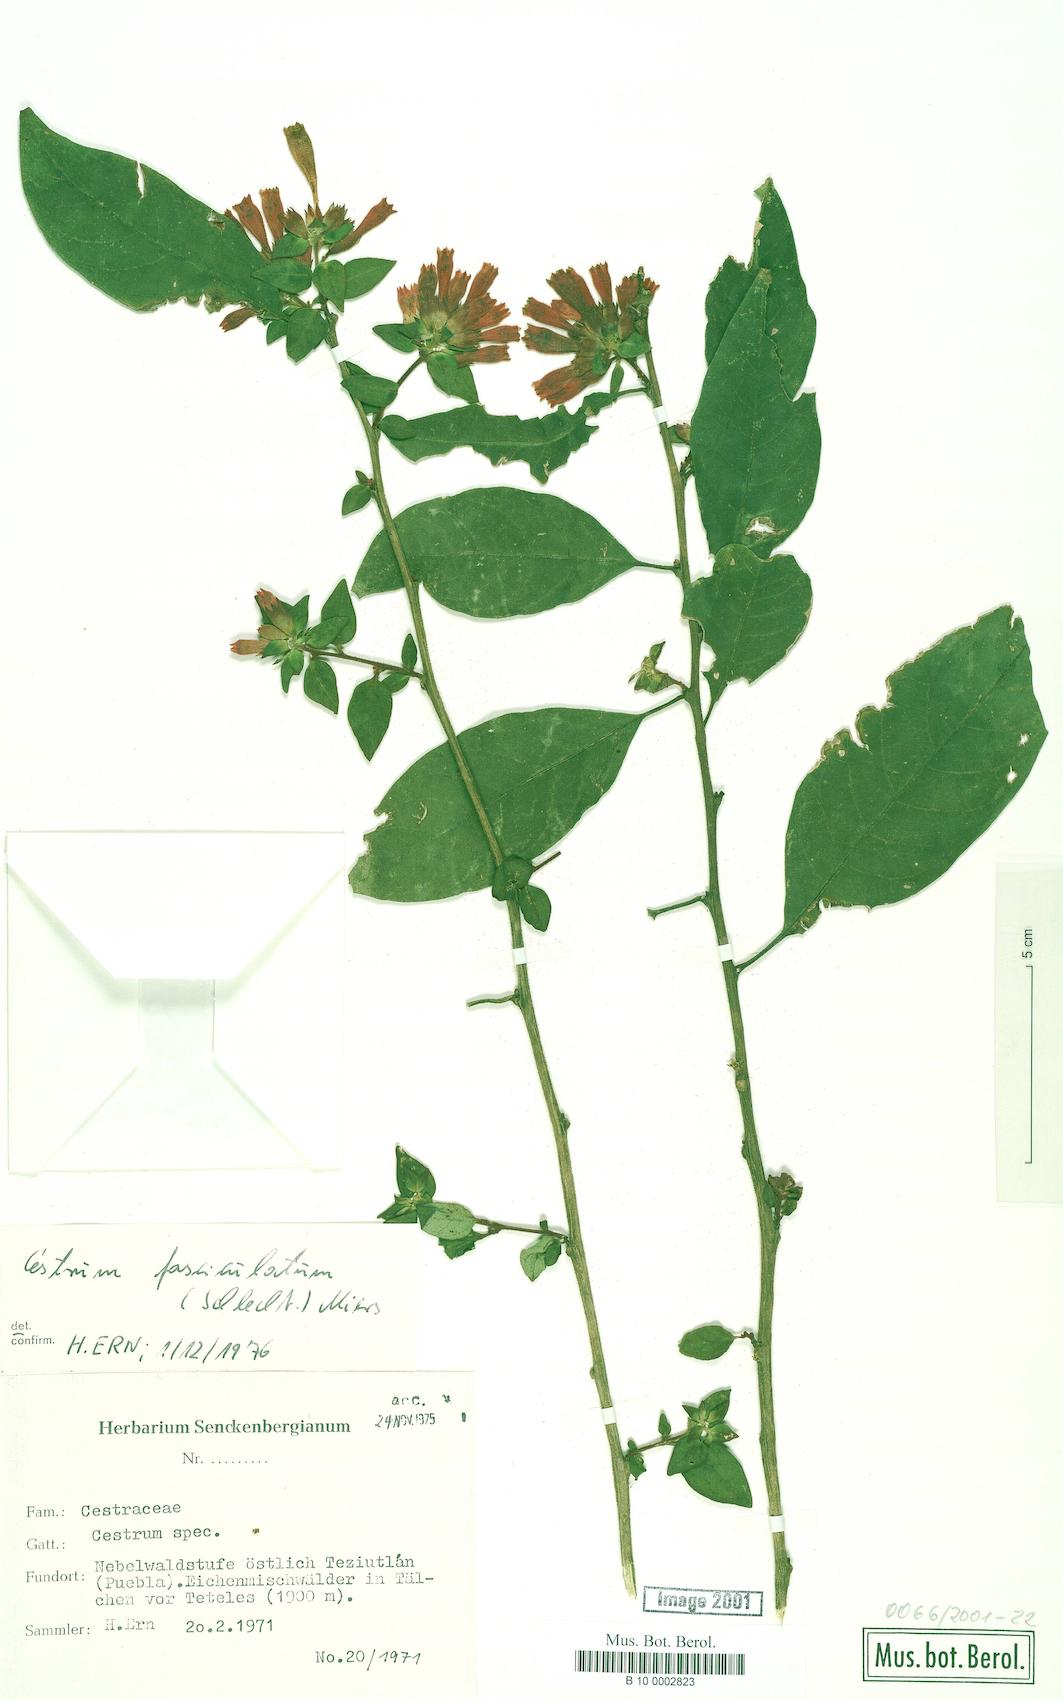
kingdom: Plantae
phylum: Tracheophyta
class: Magnoliopsida
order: Solanales
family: Solanaceae
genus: Cestrum
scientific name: Cestrum fasciculatum
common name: Early jessamine
